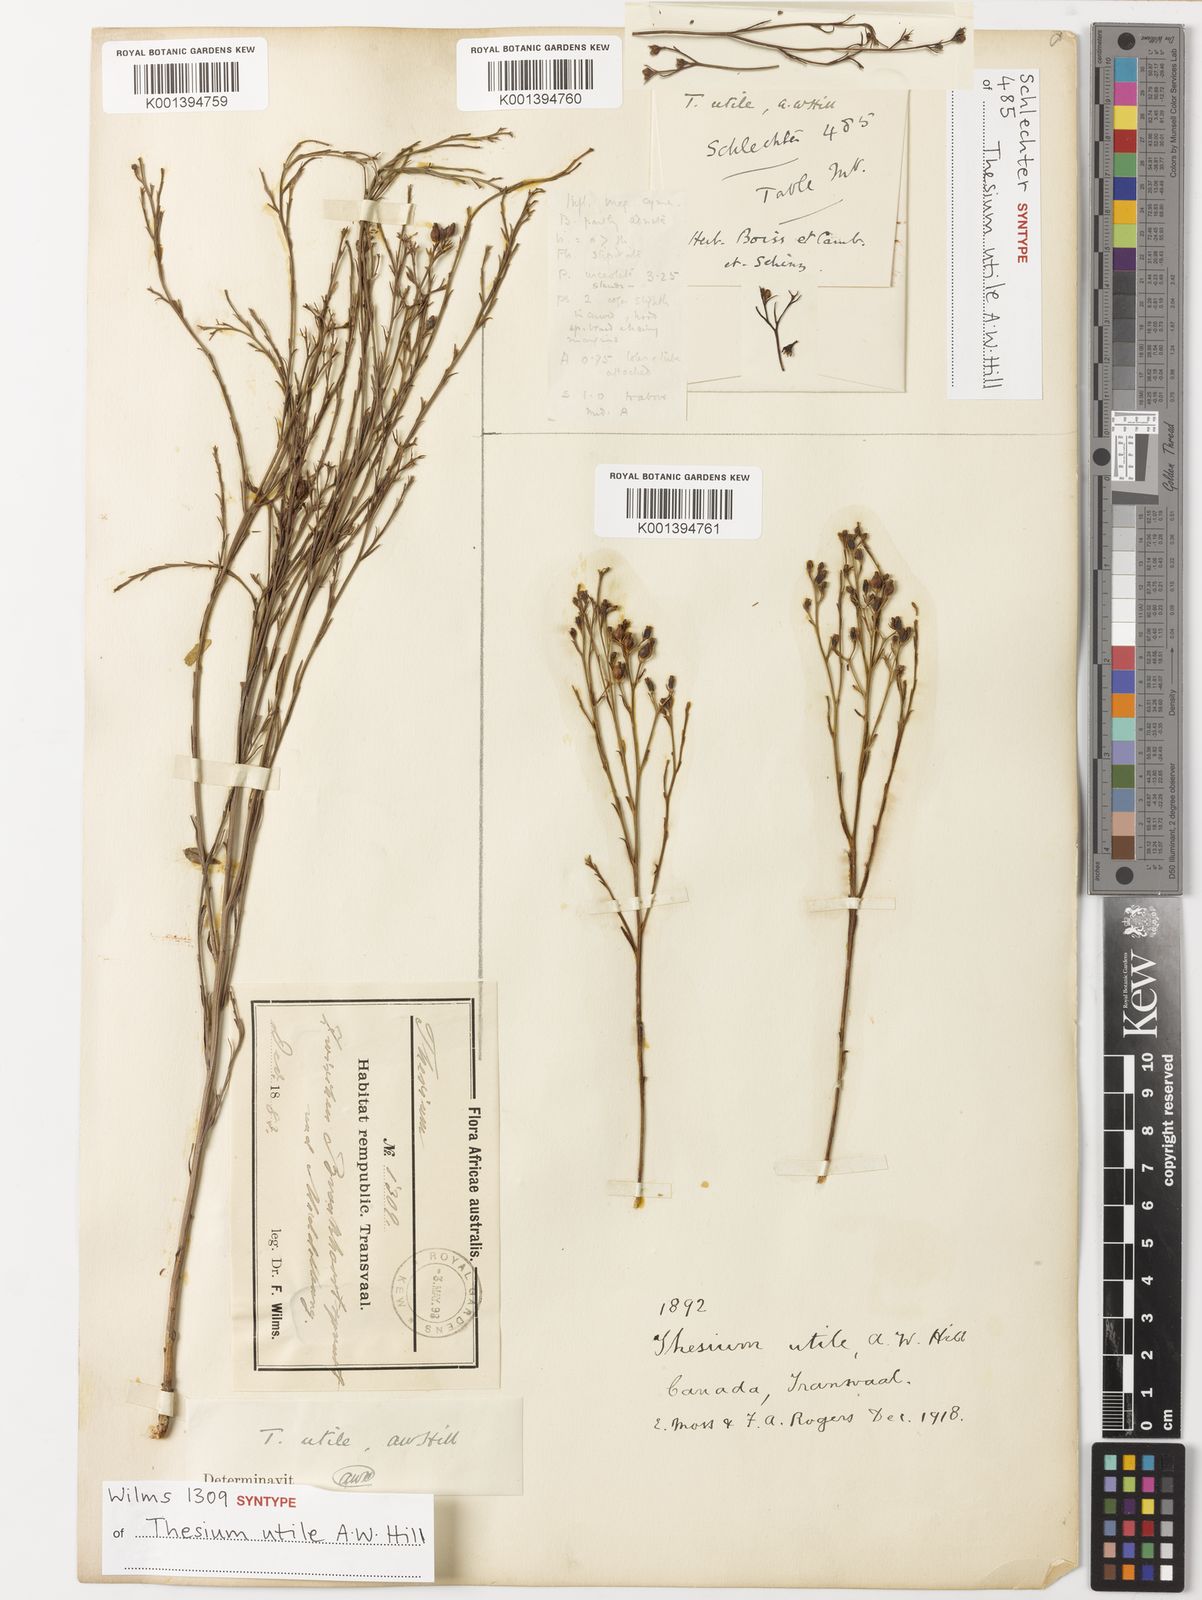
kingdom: Plantae
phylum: Tracheophyta
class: Magnoliopsida
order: Santalales
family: Thesiaceae
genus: Thesium
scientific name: Thesium utile
